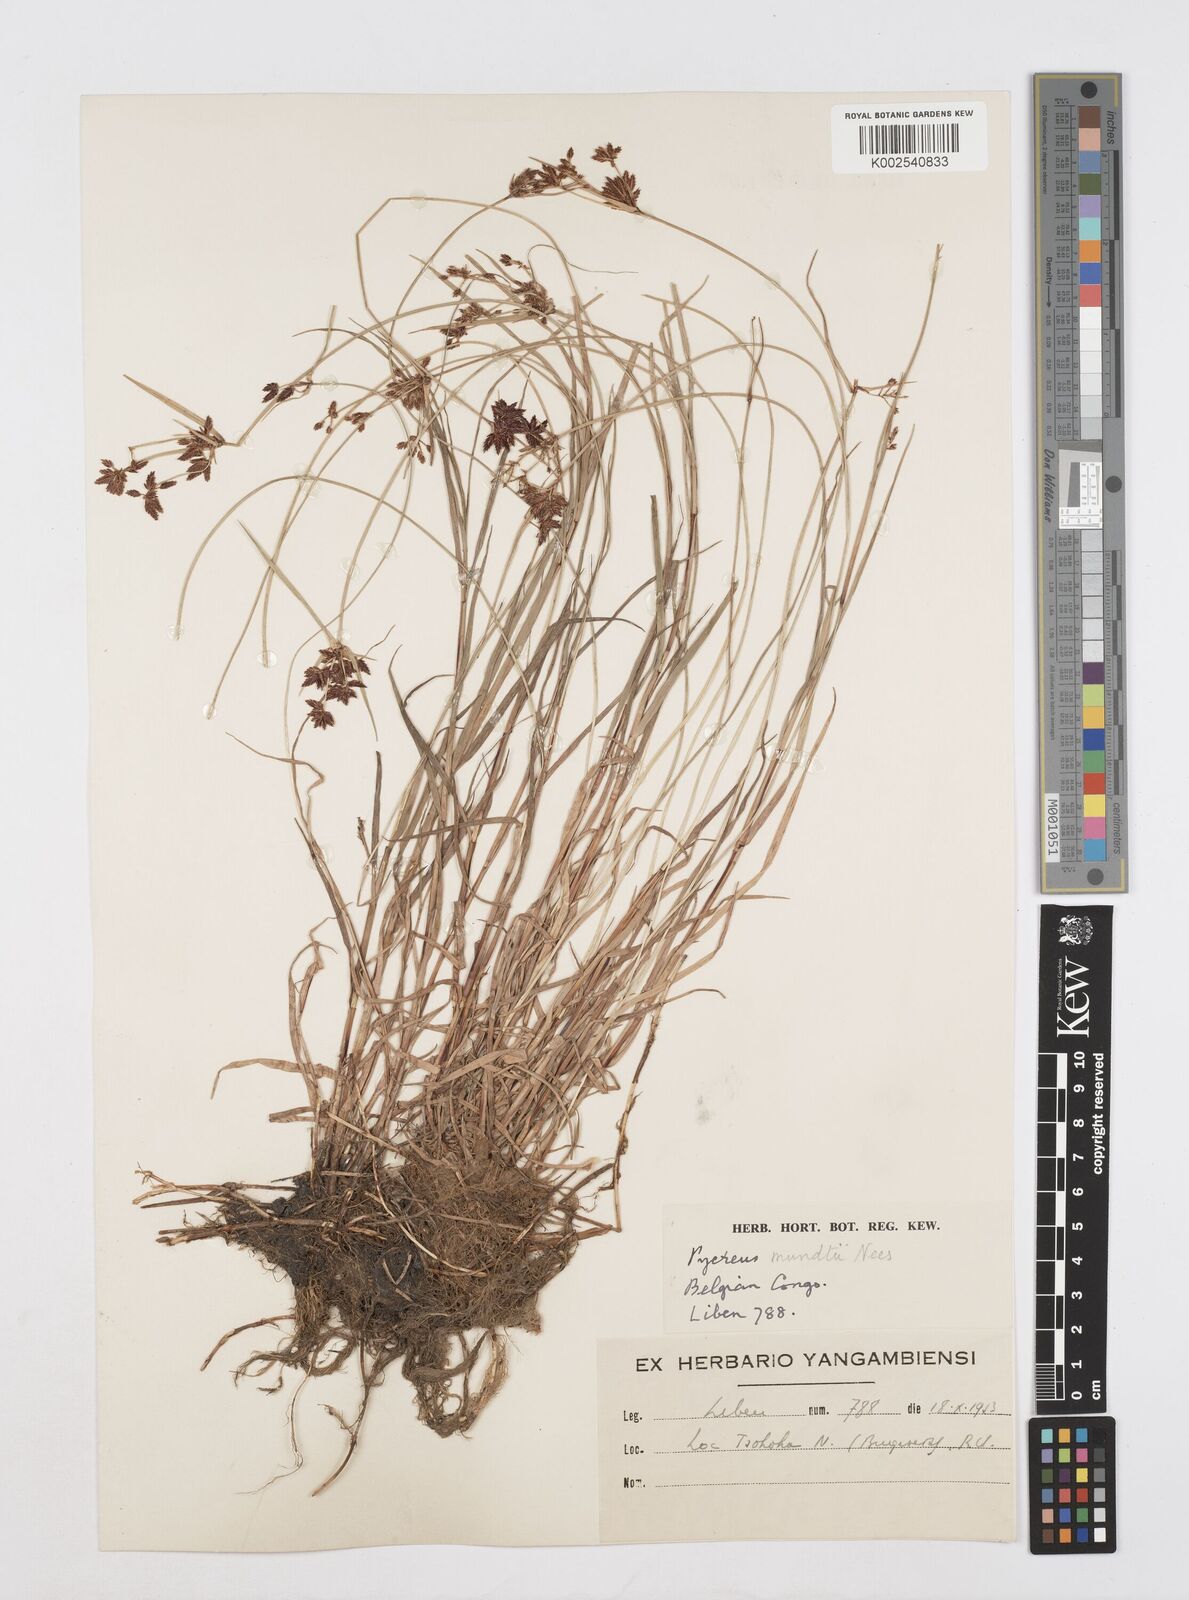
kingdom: Plantae
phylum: Tracheophyta
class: Liliopsida
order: Poales
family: Cyperaceae
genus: Cyperus
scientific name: Cyperus mundii
